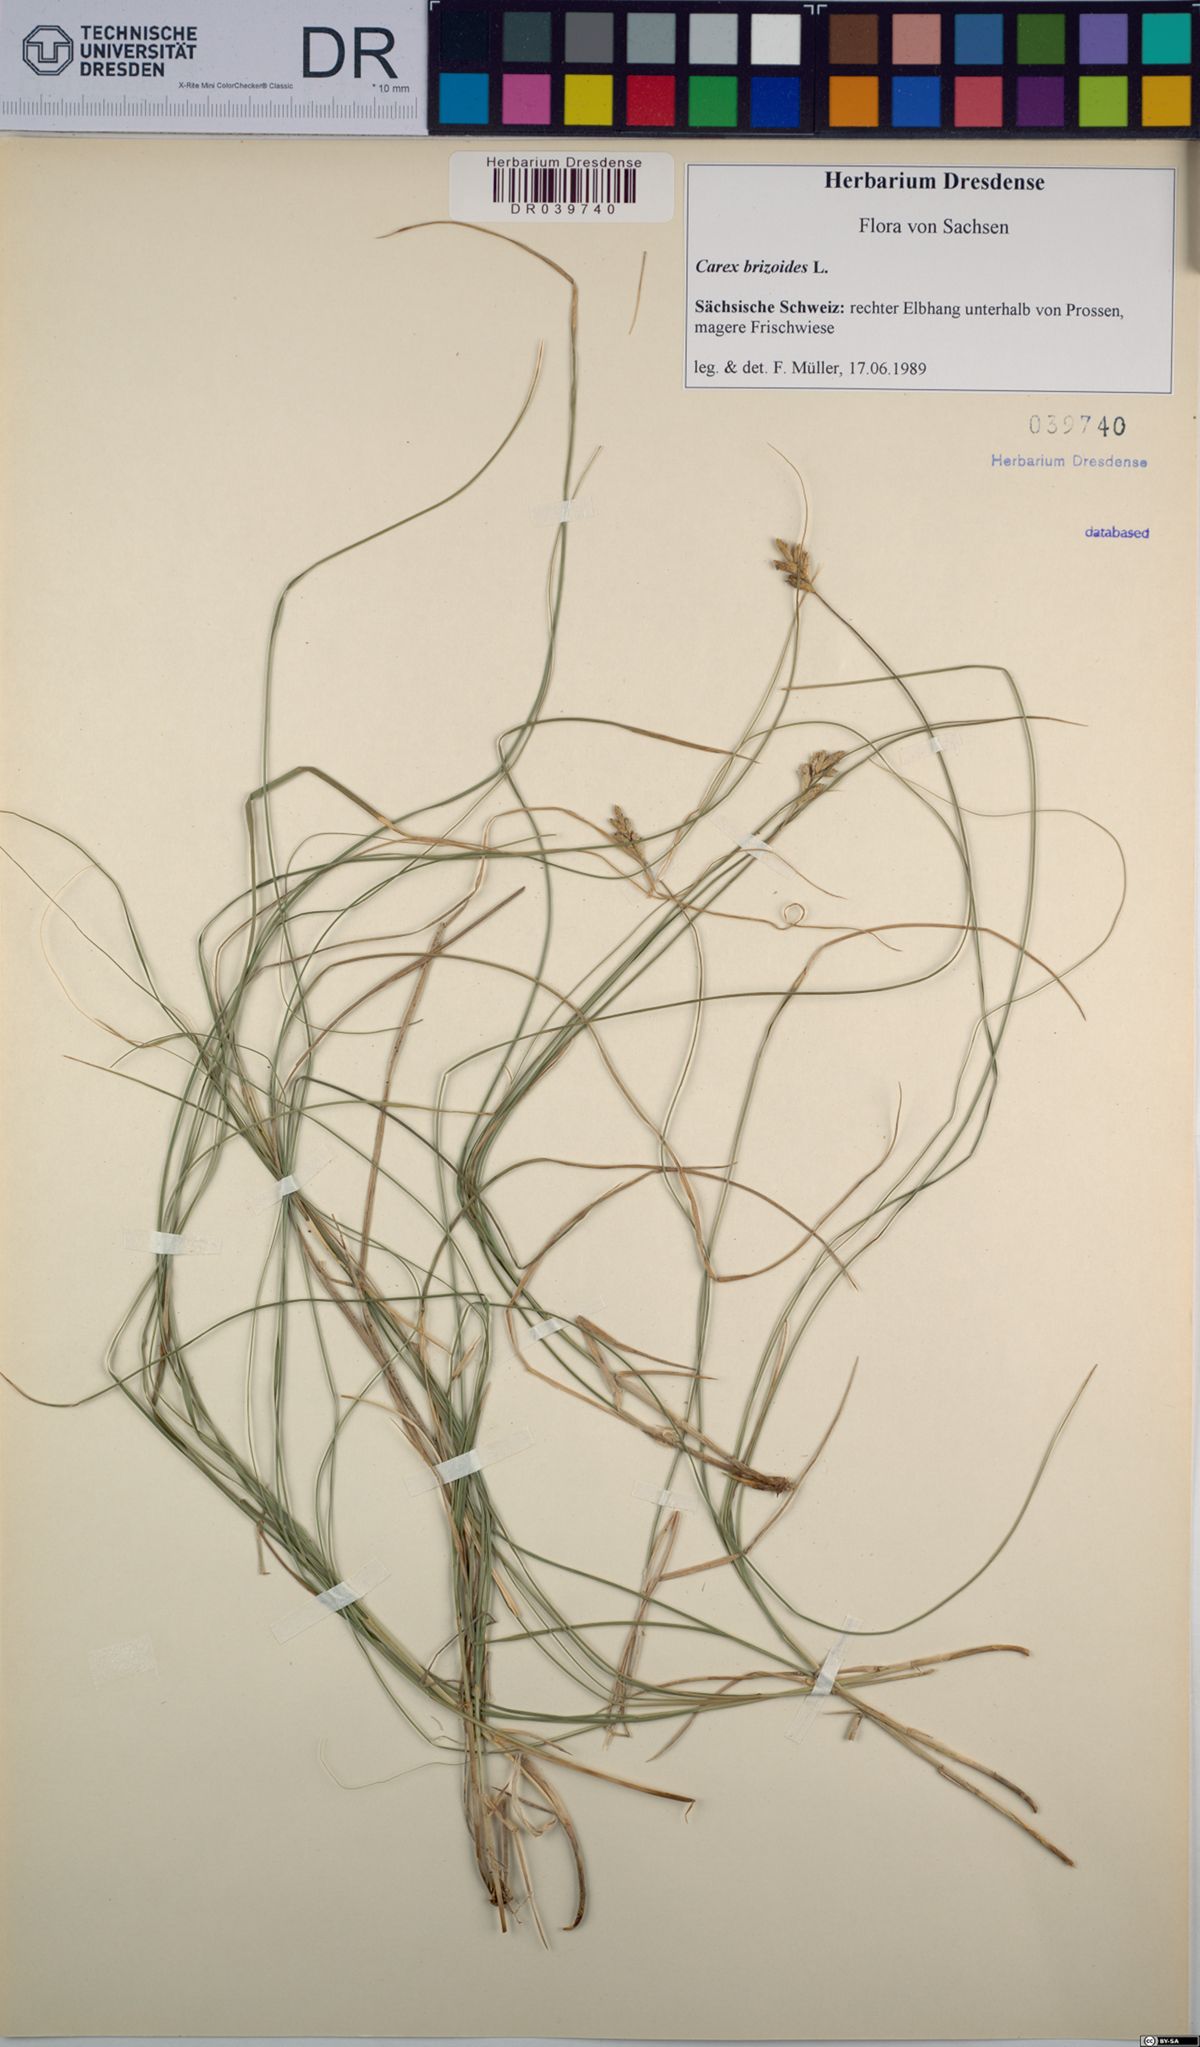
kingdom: Plantae
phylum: Tracheophyta
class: Liliopsida
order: Poales
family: Cyperaceae
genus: Carex
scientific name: Carex brizoides
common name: Quaking-grass sedge
